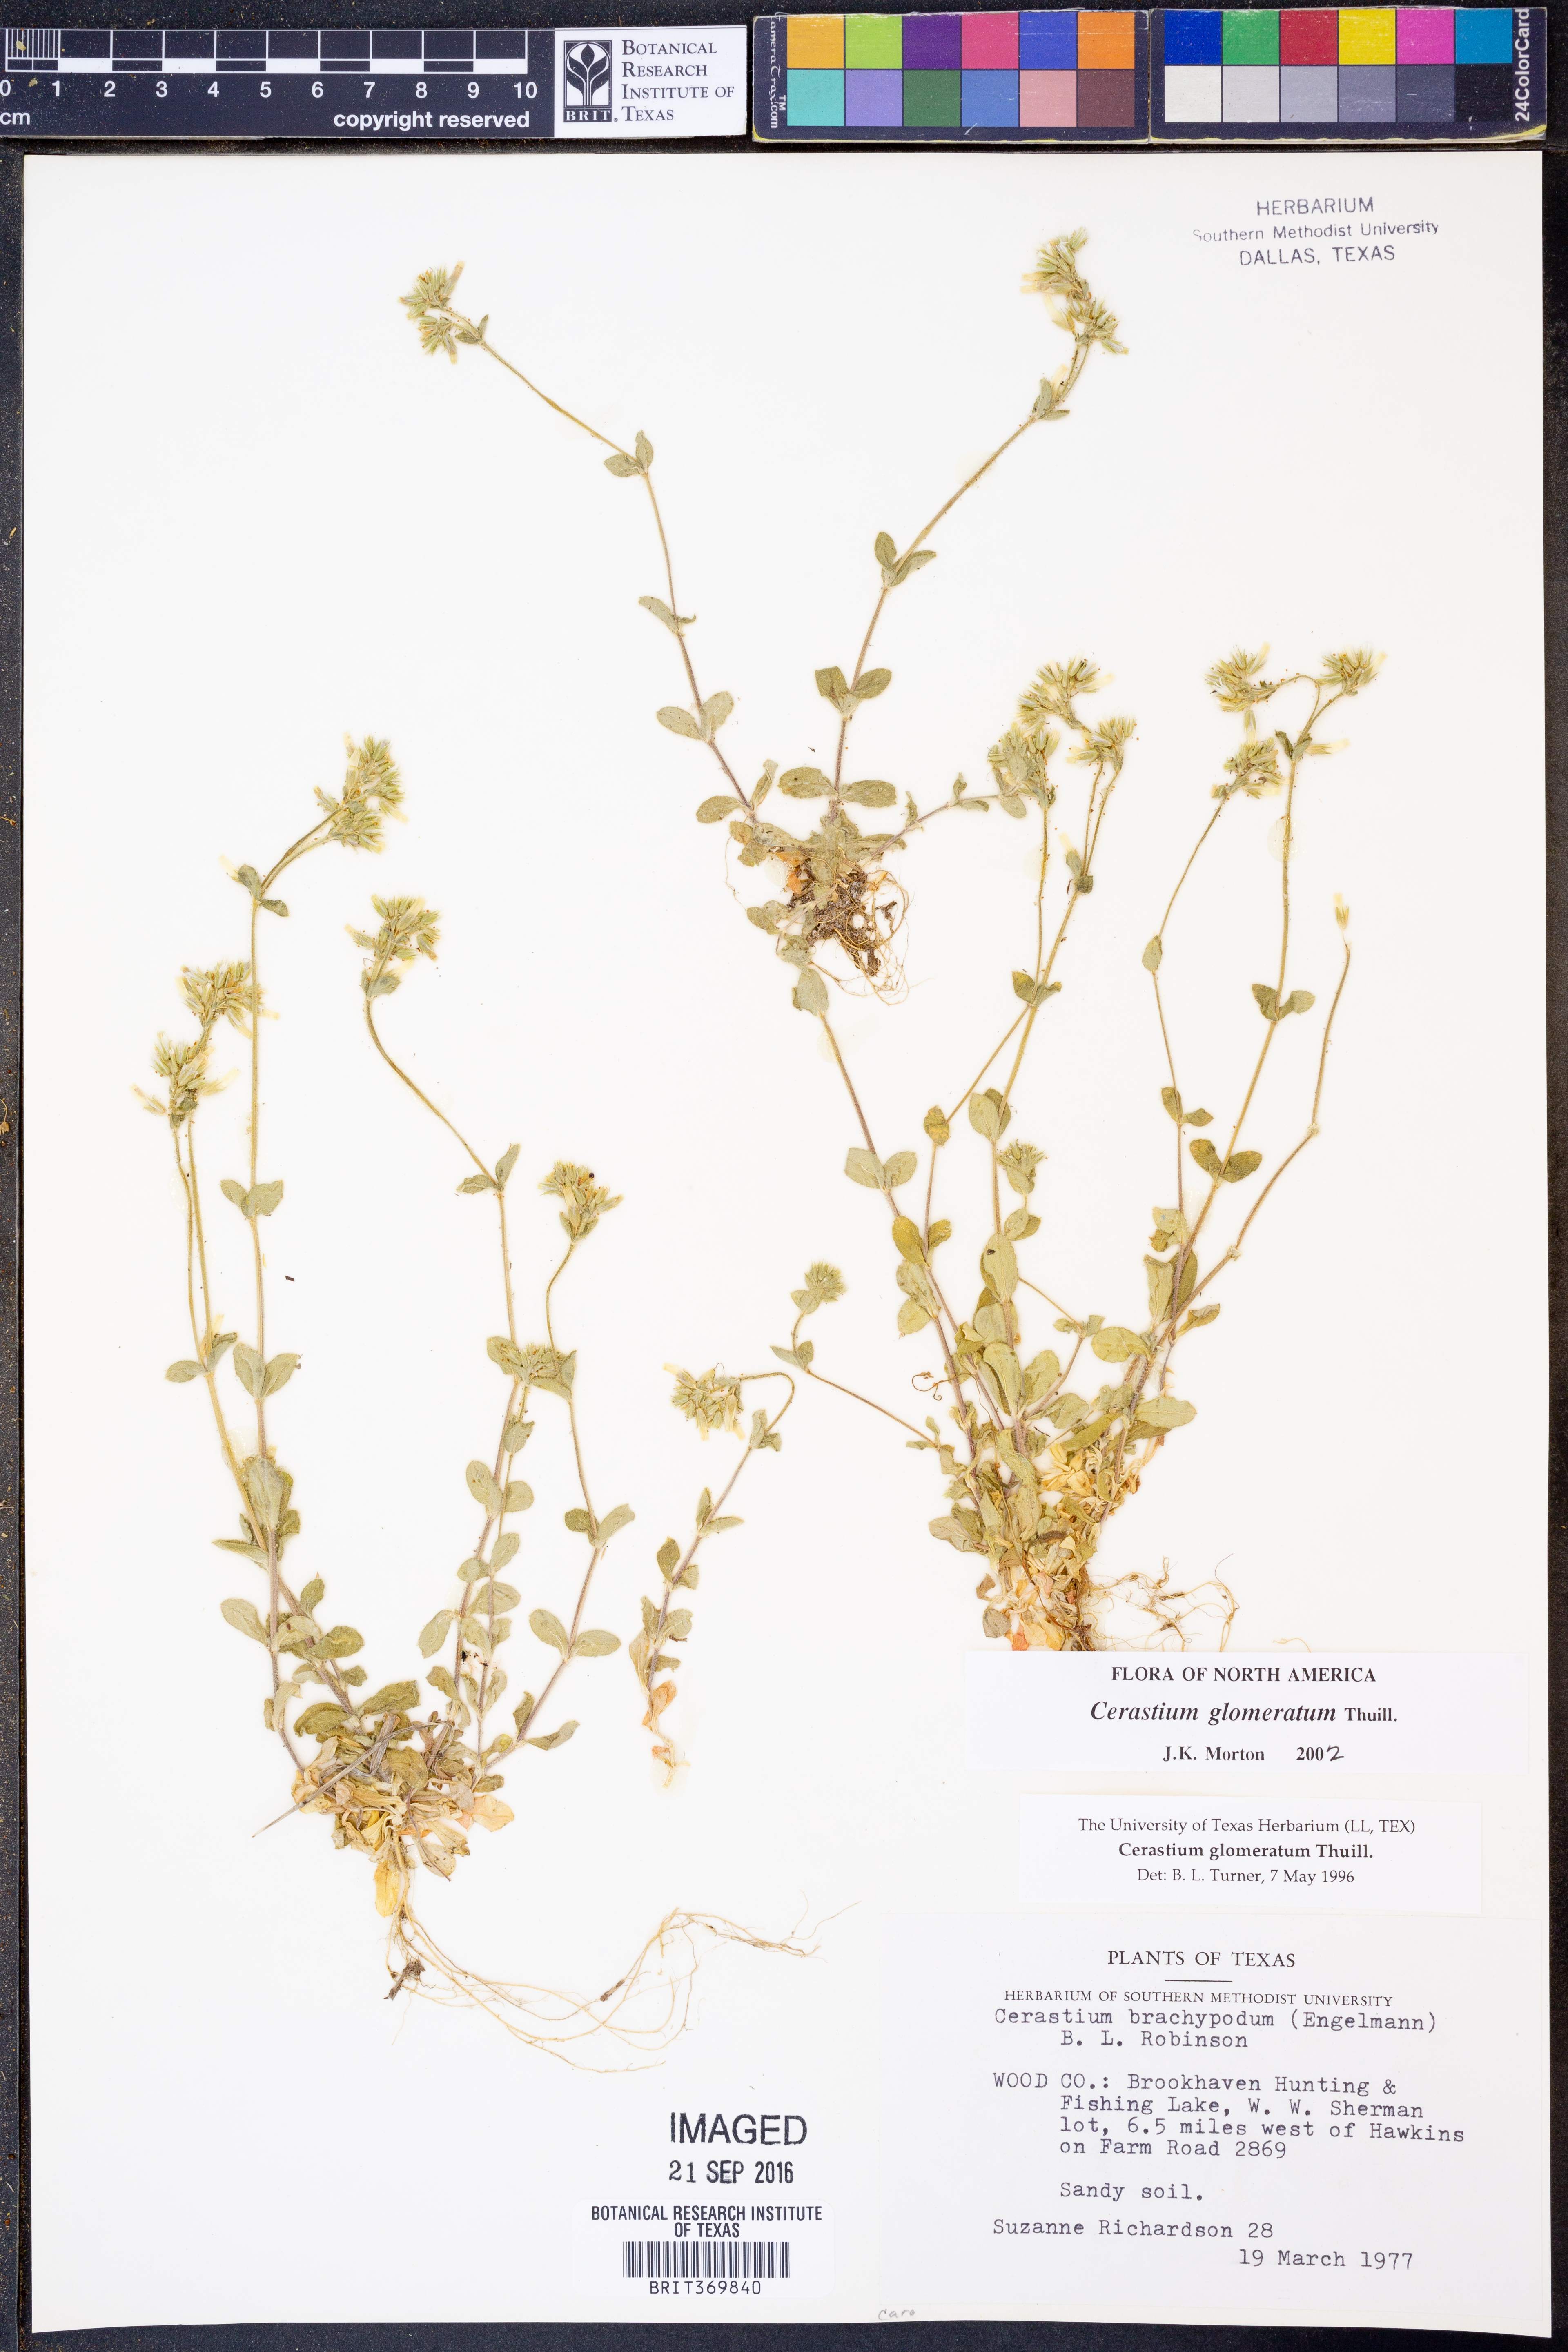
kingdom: Plantae
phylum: Tracheophyta
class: Magnoliopsida
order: Caryophyllales
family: Caryophyllaceae
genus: Cerastium
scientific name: Cerastium glomeratum
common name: Sticky chickweed
